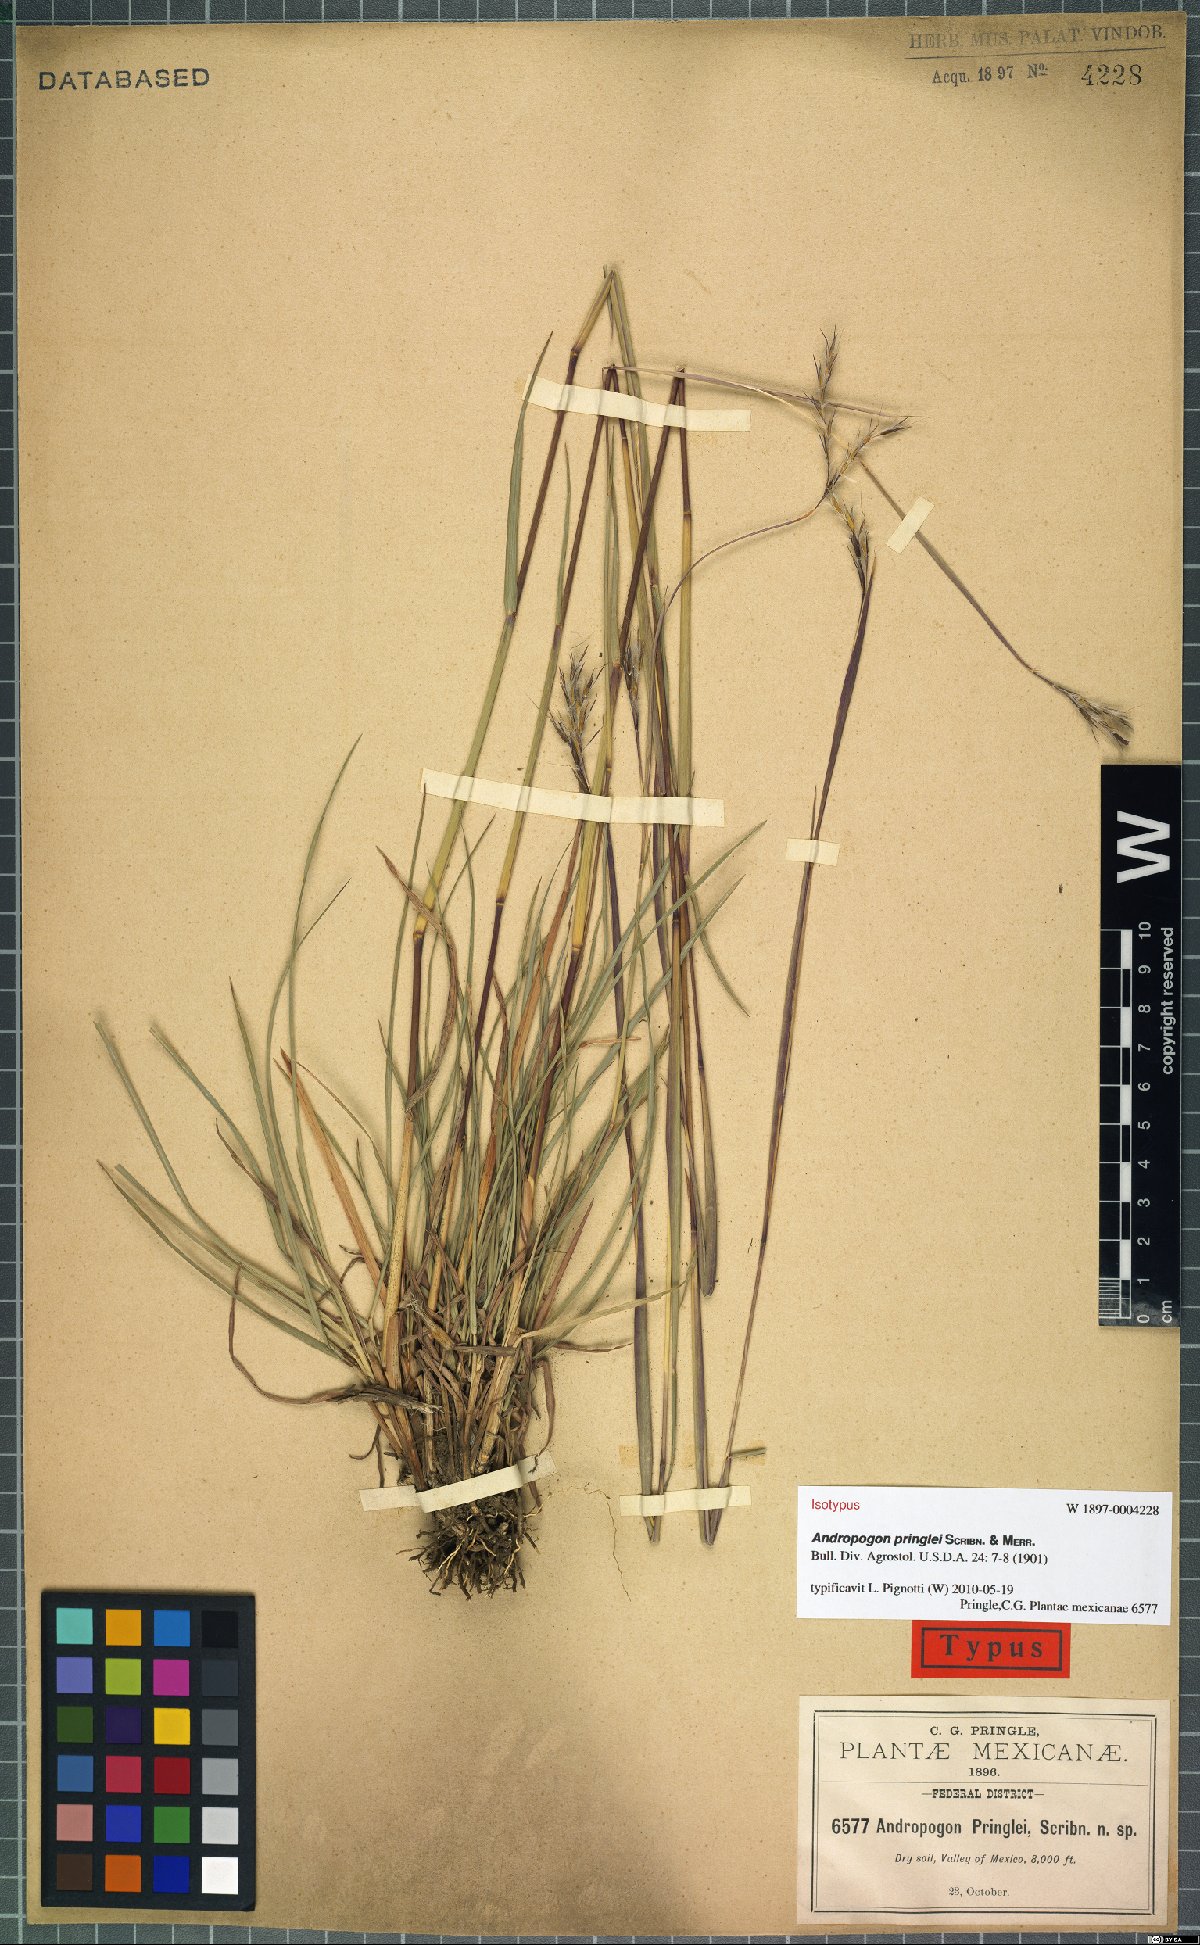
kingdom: Plantae
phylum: Tracheophyta
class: Liliopsida
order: Poales
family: Poaceae
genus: Andropogon
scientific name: Andropogon pringlei
